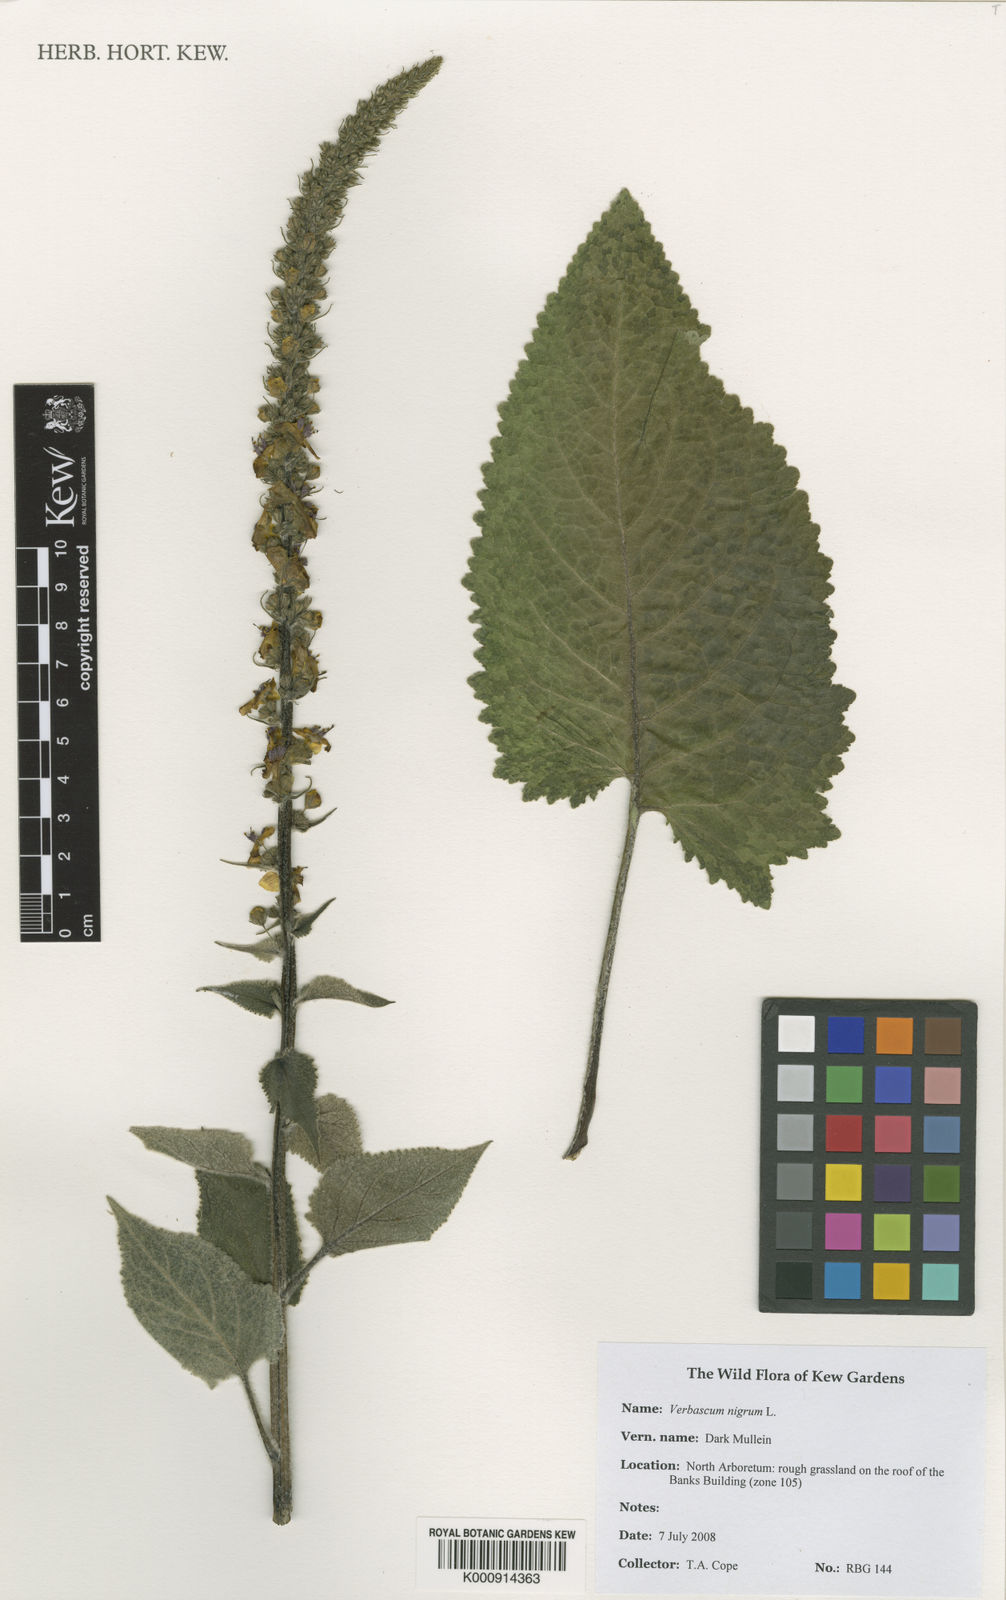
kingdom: Plantae
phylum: Tracheophyta
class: Magnoliopsida
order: Lamiales
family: Scrophulariaceae
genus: Verbascum
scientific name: Verbascum nigrum
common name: Dark mullein
